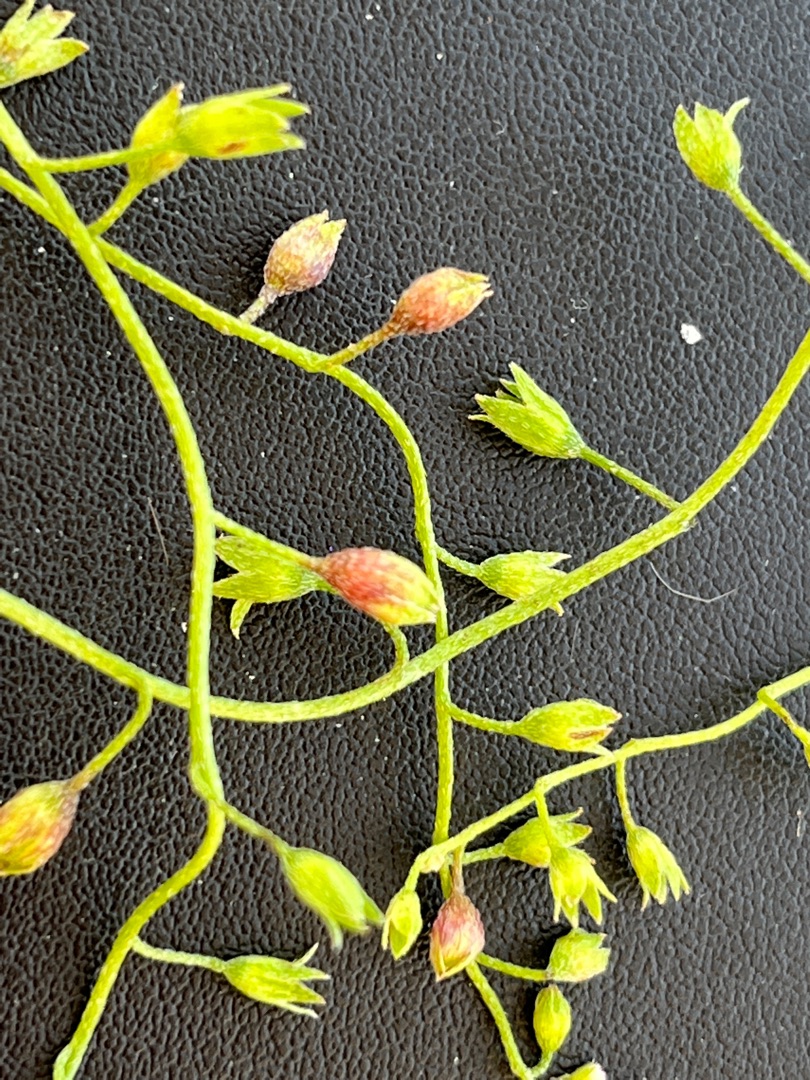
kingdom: Animalia
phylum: Arthropoda
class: Insecta
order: Diptera
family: Cecidomyiidae
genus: Dasineura
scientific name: Dasineura myosotidis
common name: Forglemmigejgalmyg
